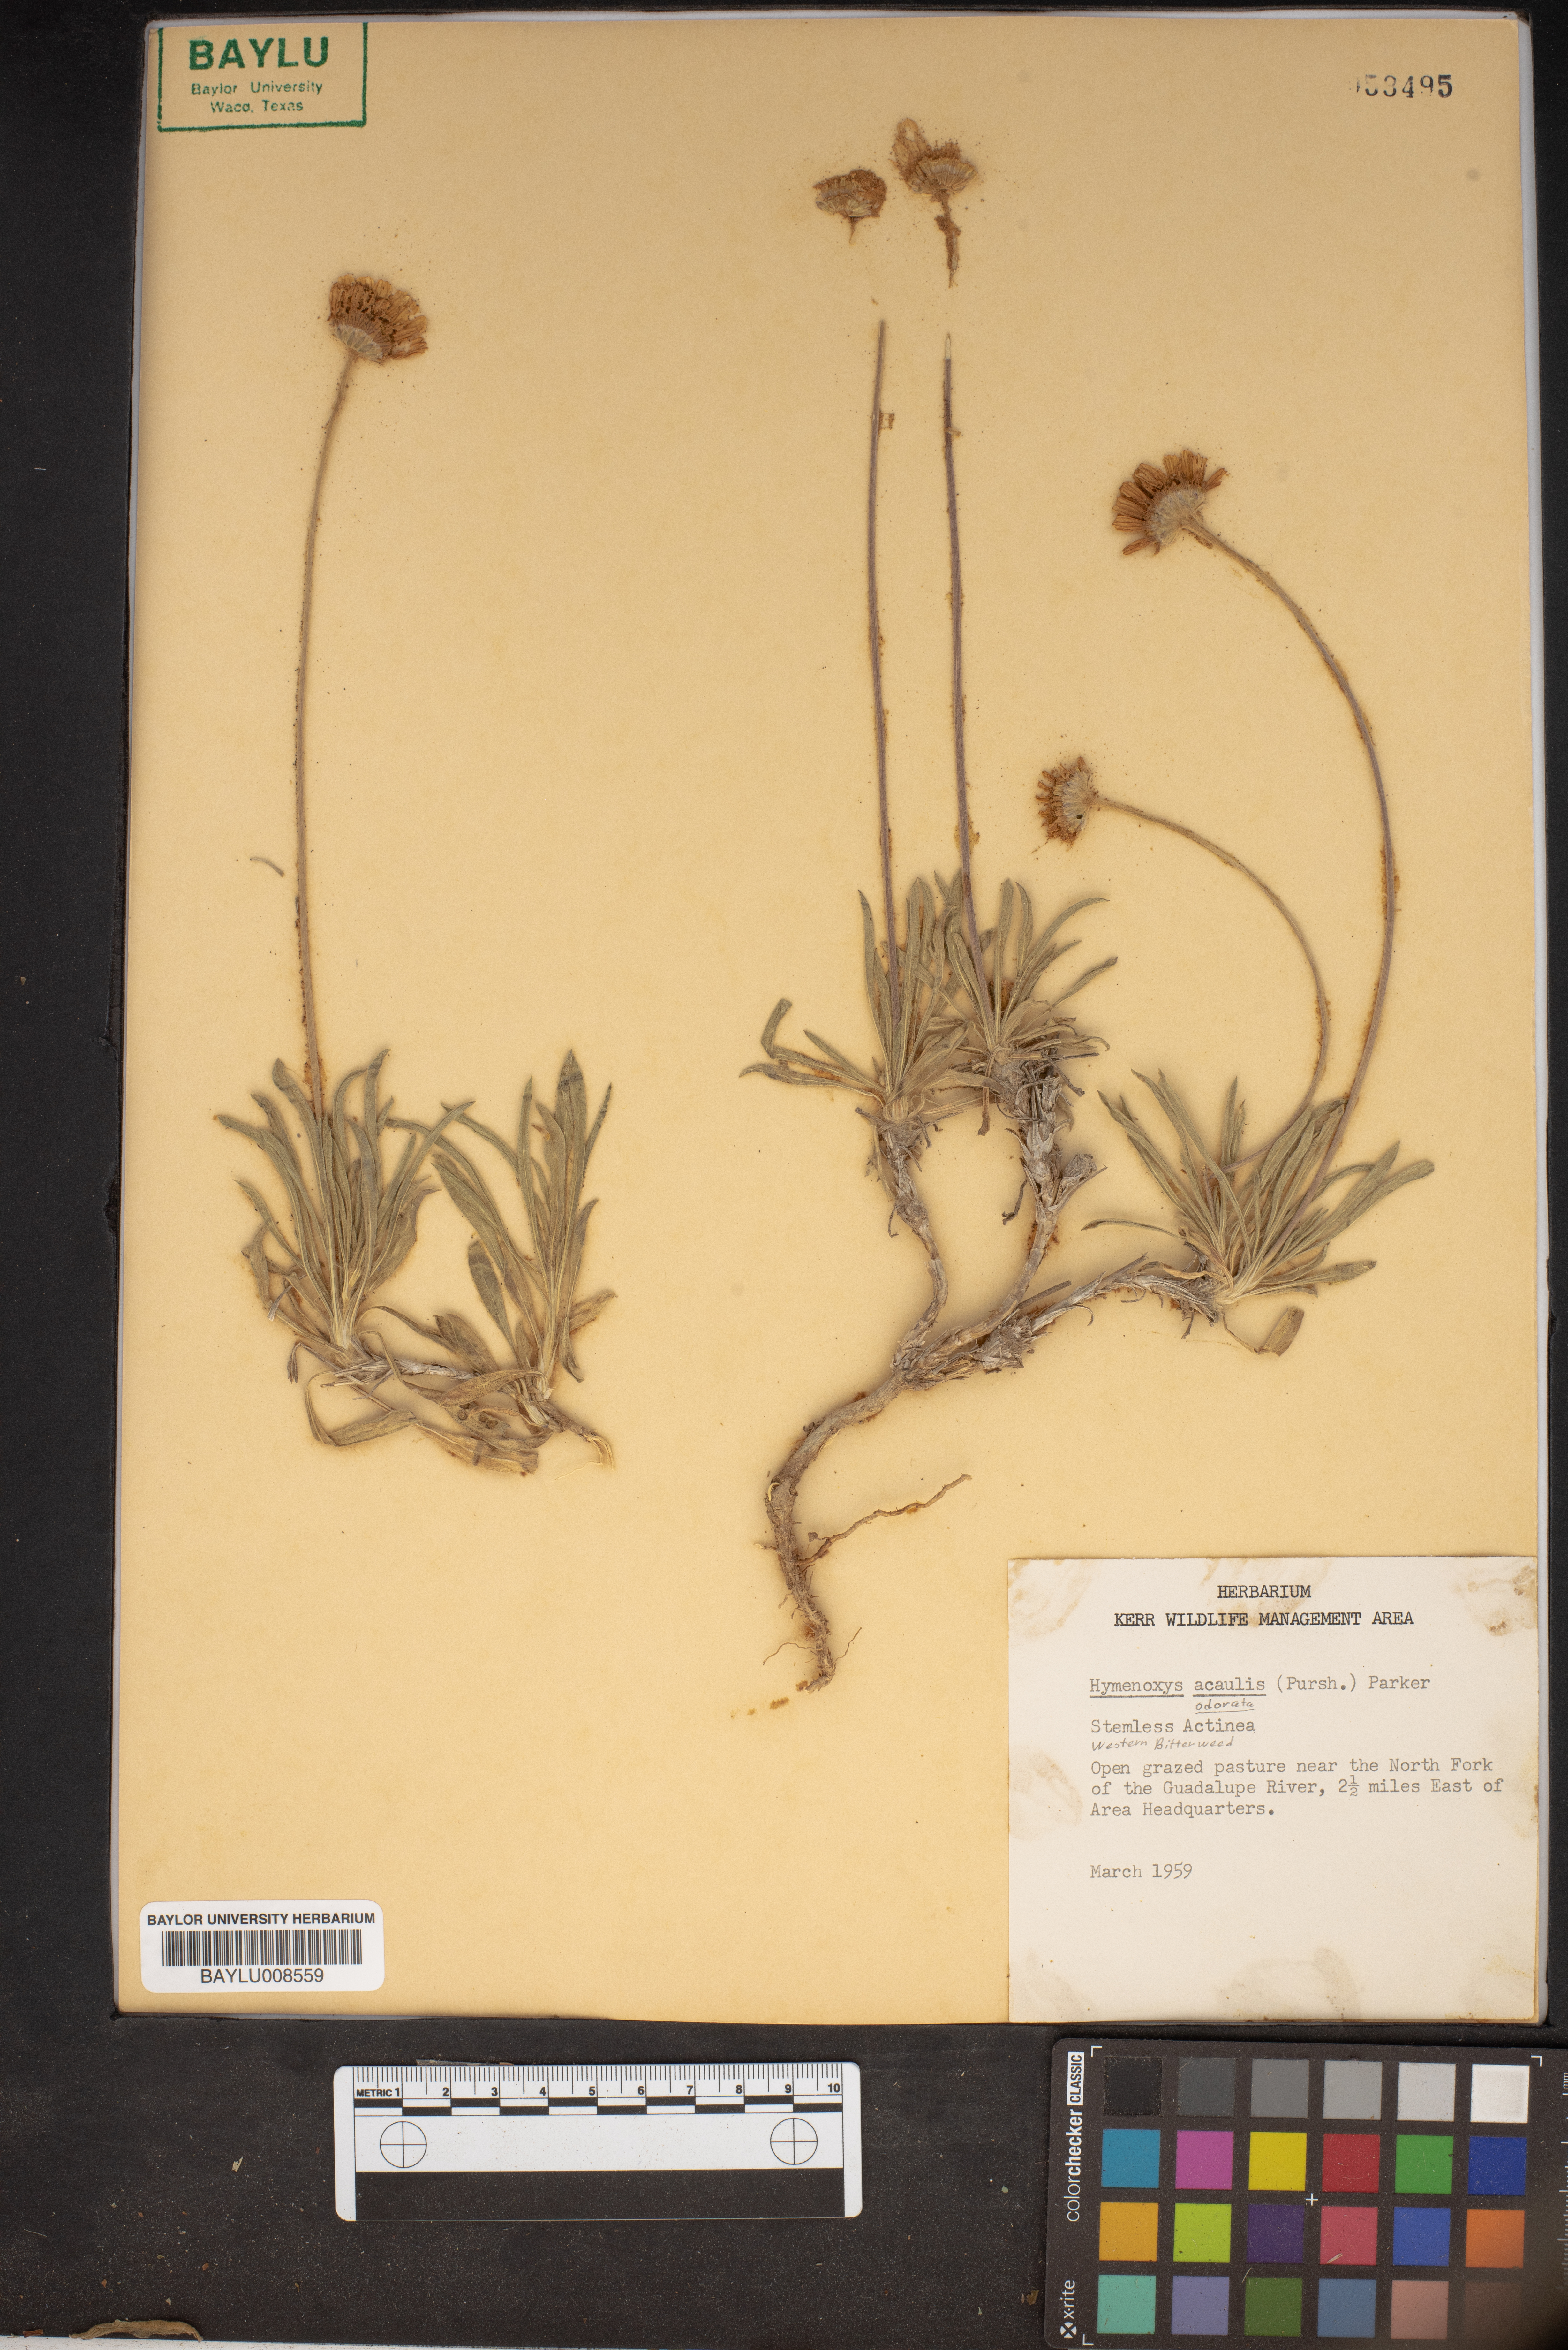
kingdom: Plantae
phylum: Tracheophyta
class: Magnoliopsida
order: Asterales
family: Asteraceae
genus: Tetraneuris
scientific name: Tetraneuris acaulis
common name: Butte marigold
